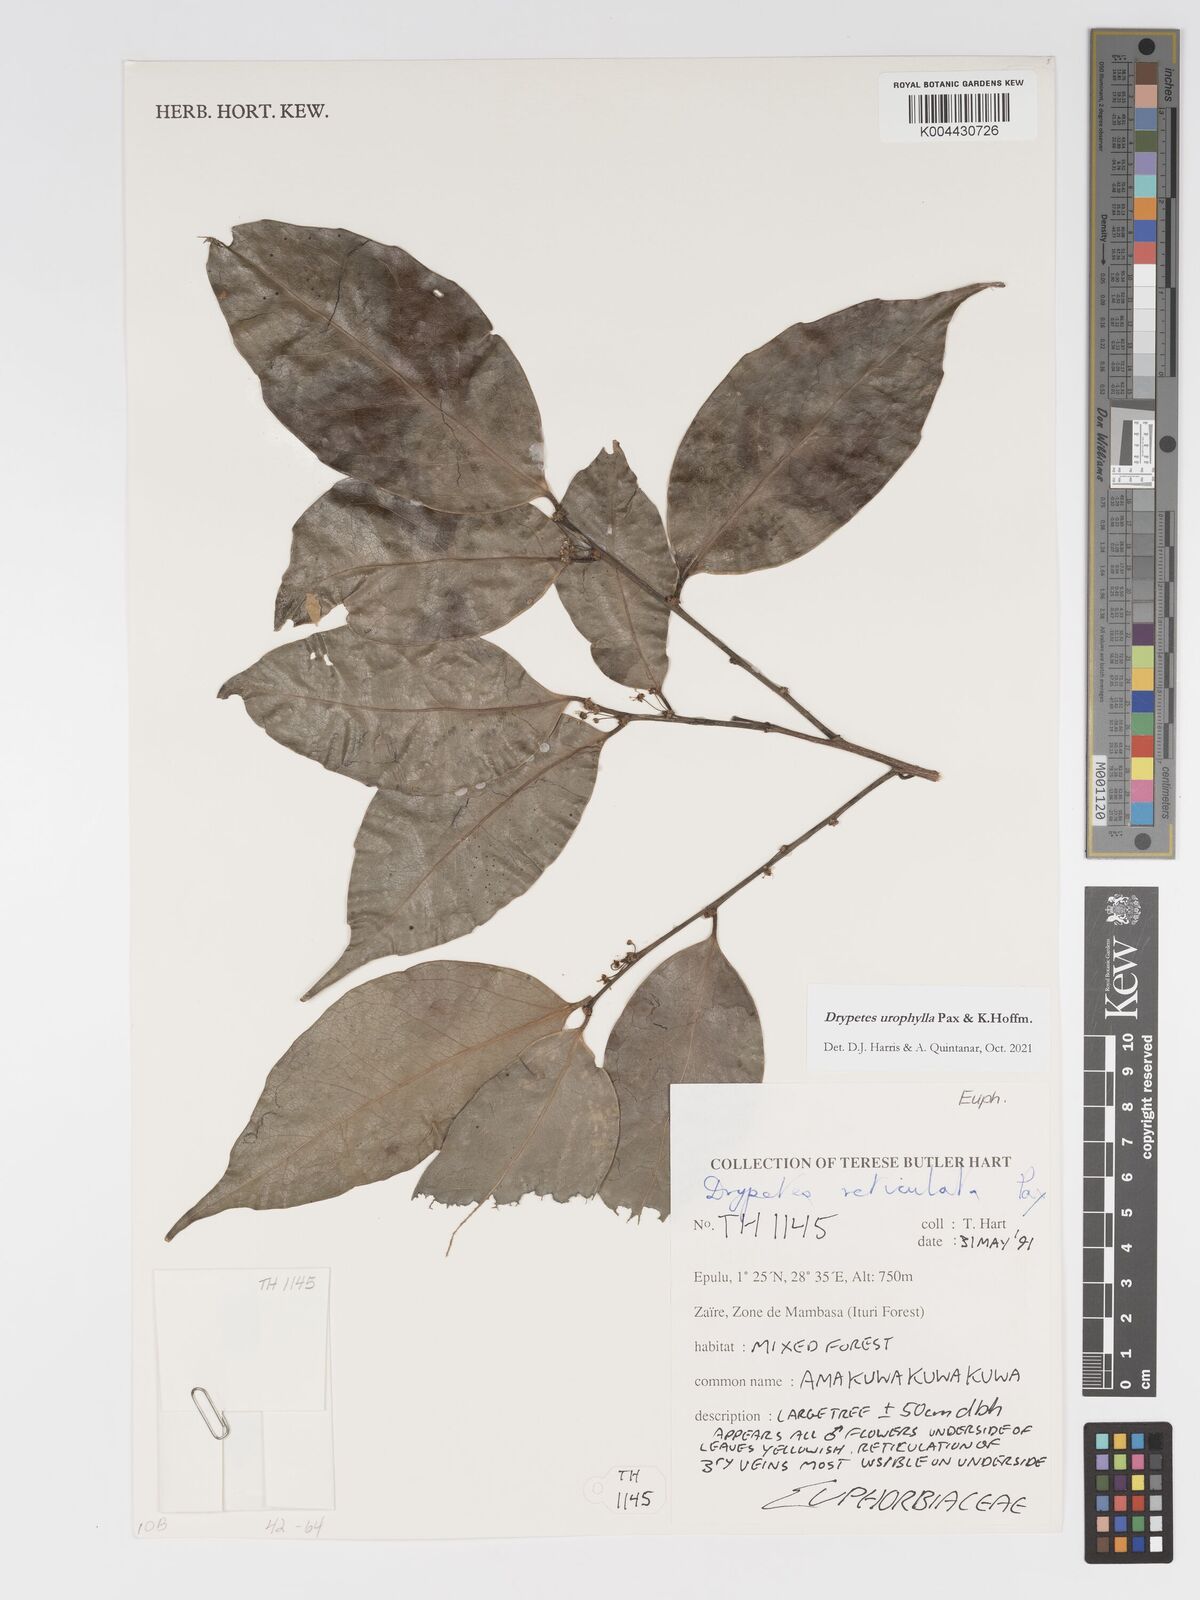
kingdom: Plantae
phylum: Tracheophyta
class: Magnoliopsida
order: Malpighiales
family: Putranjivaceae
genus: Drypetes
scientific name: Drypetes leonensis
